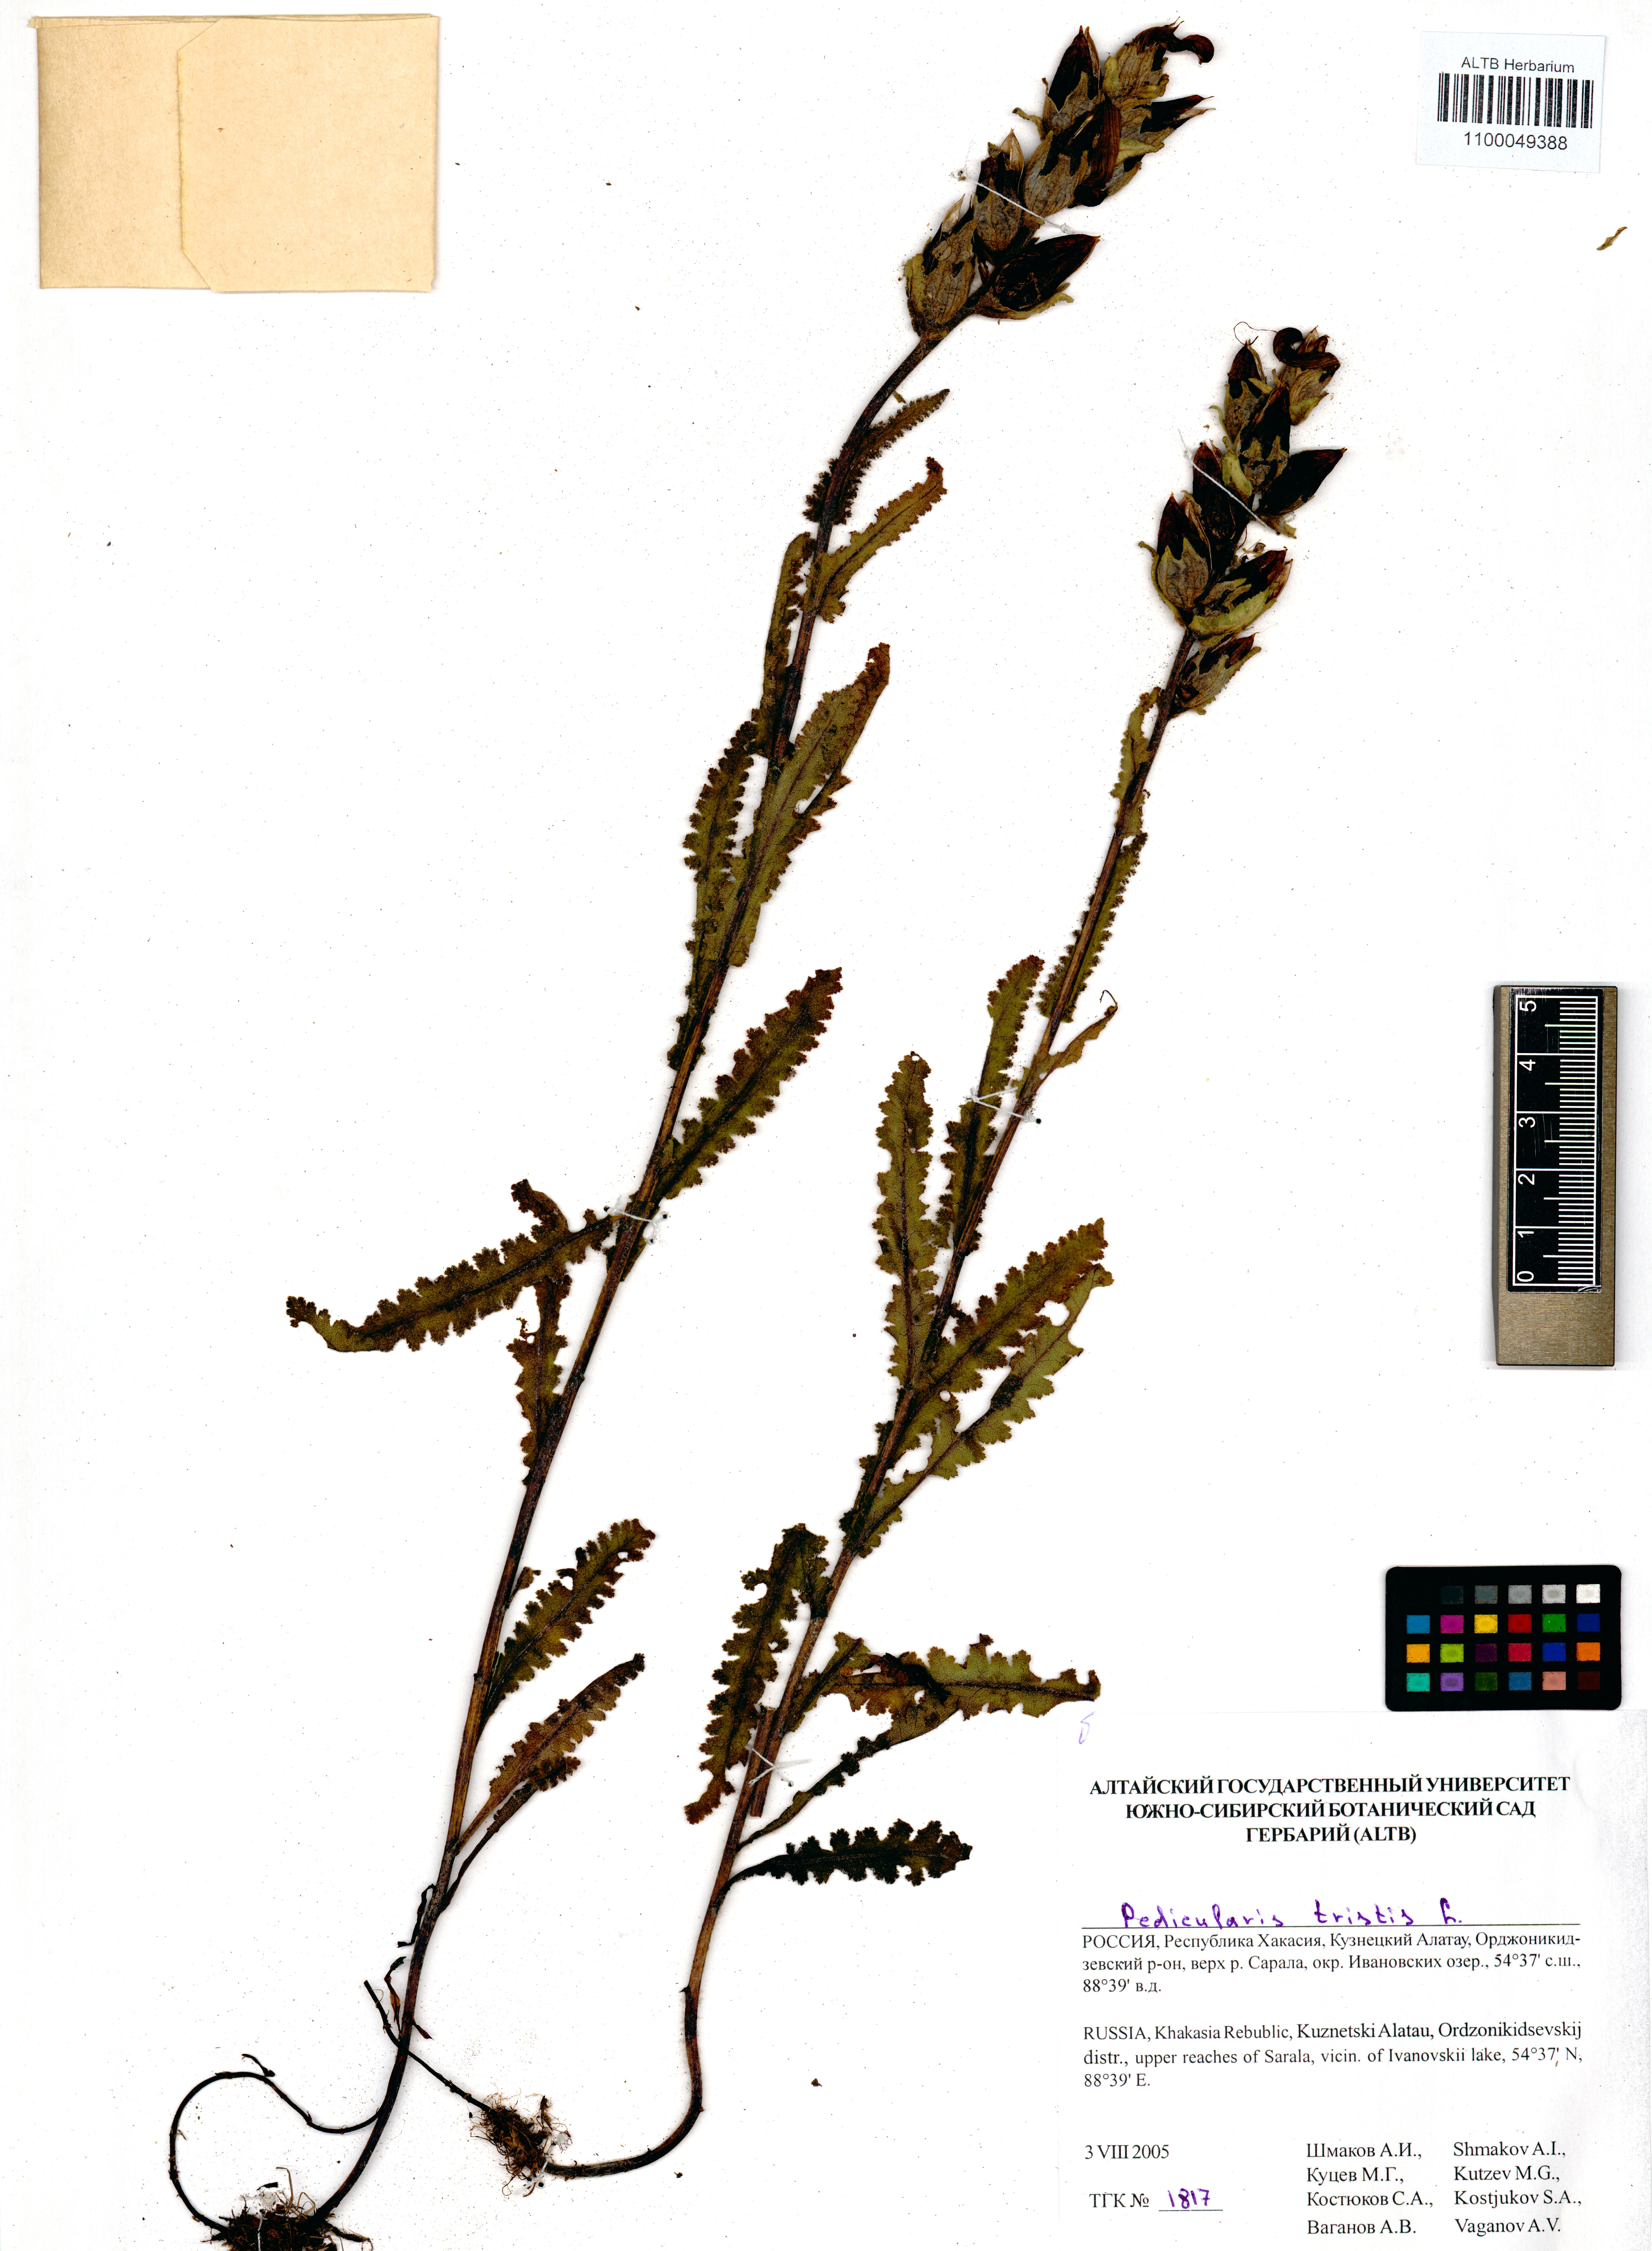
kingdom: Plantae
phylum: Tracheophyta
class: Magnoliopsida
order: Lamiales
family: Orobanchaceae
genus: Pedicularis
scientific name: Pedicularis tristis
